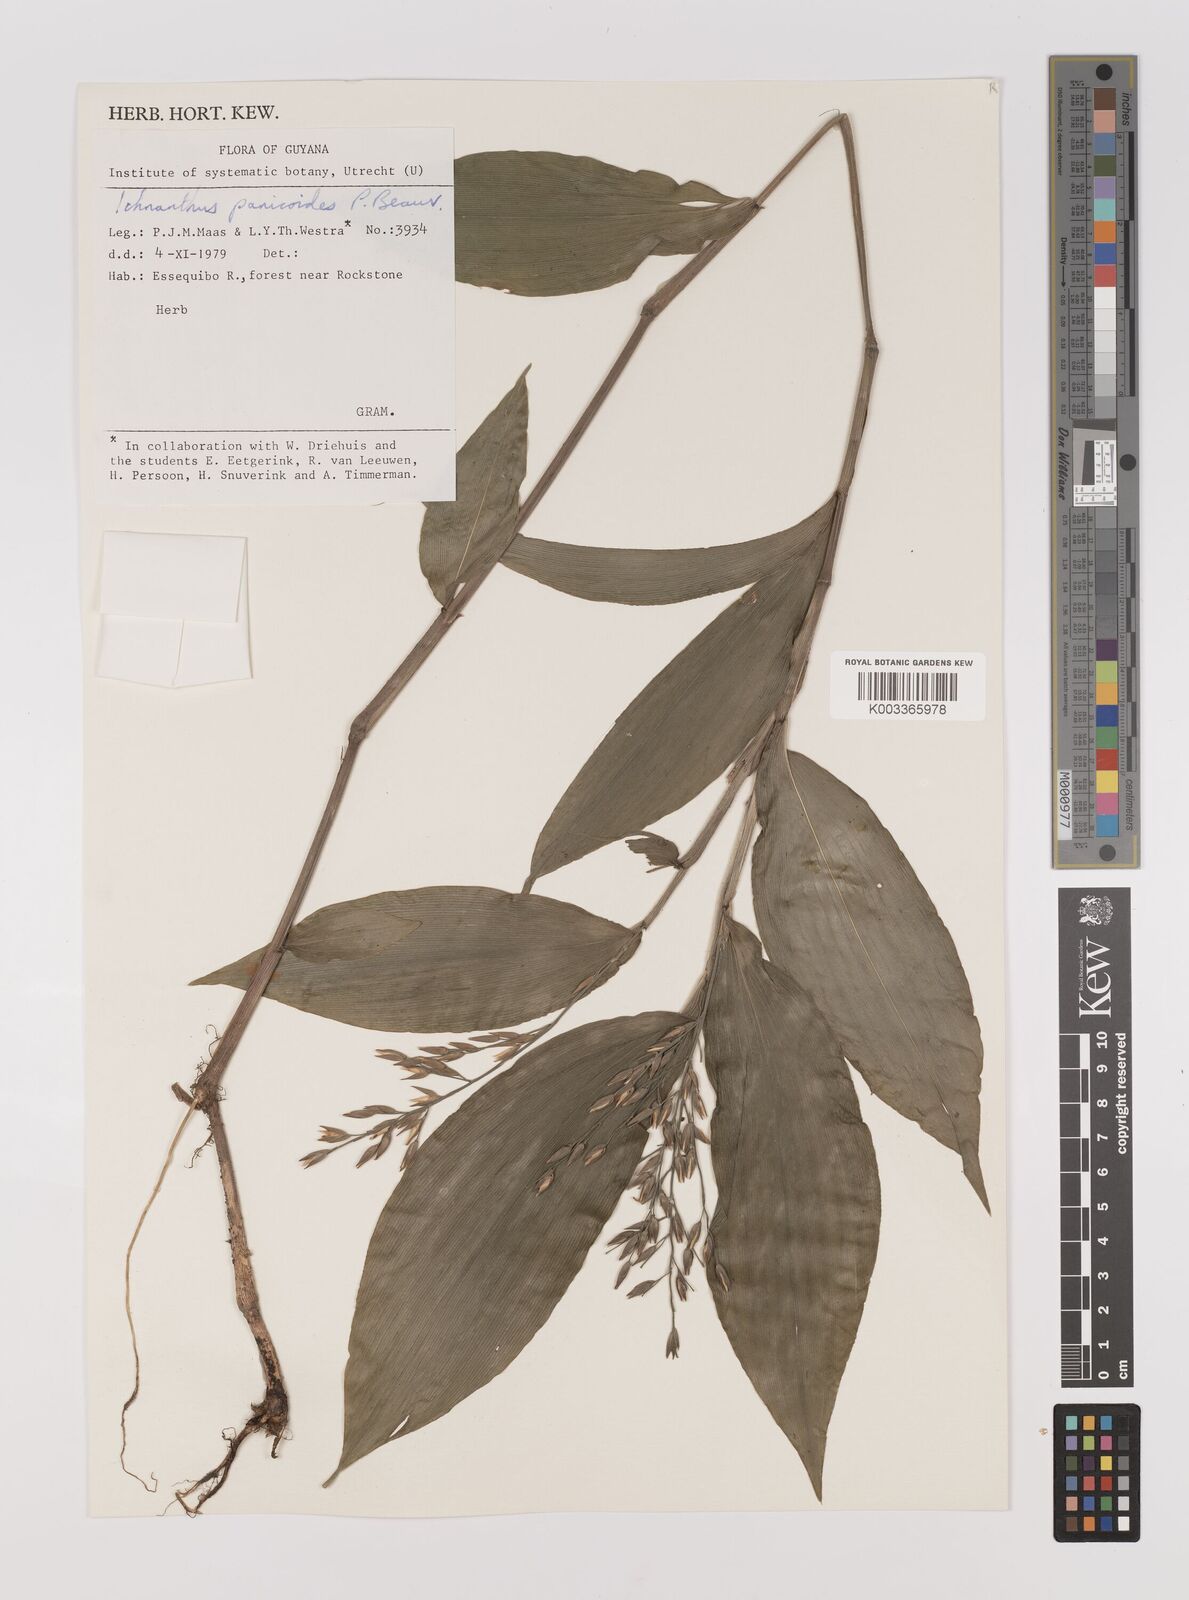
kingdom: Plantae
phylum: Tracheophyta
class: Liliopsida
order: Poales
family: Poaceae
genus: Ichnanthus
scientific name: Ichnanthus panicoides
